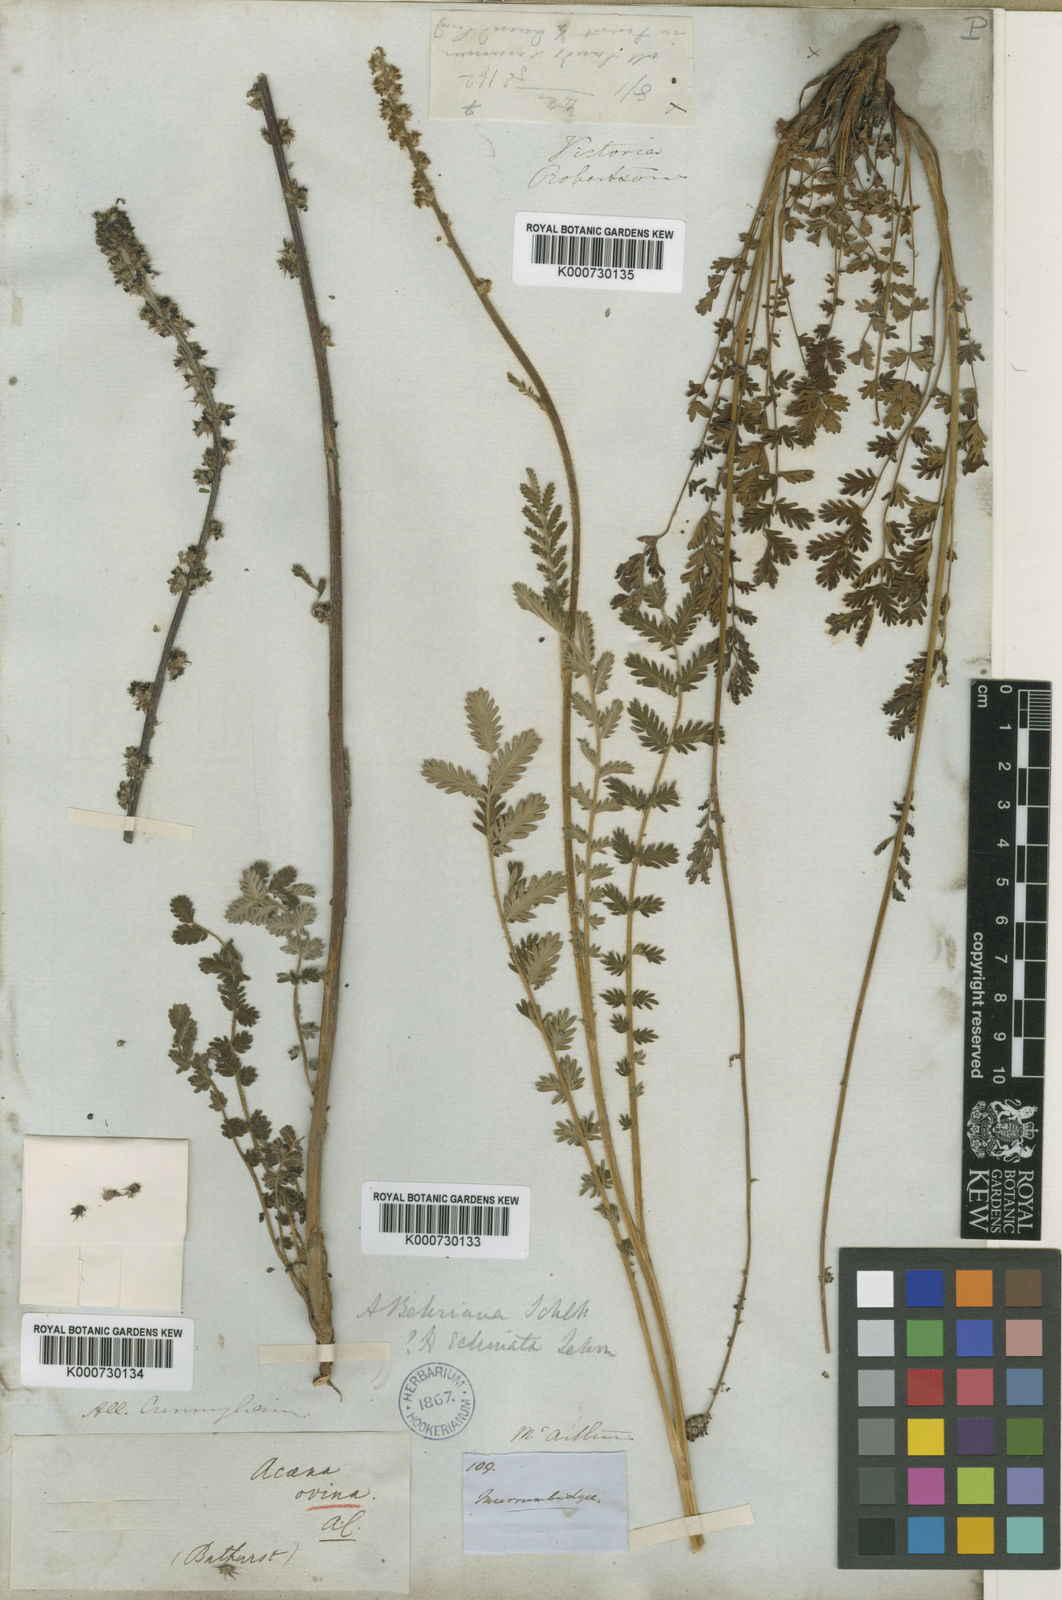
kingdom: Plantae
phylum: Tracheophyta
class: Magnoliopsida
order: Rosales
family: Rosaceae
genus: Acaena
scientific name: Acaena ovina
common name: Hairy sheepbur
